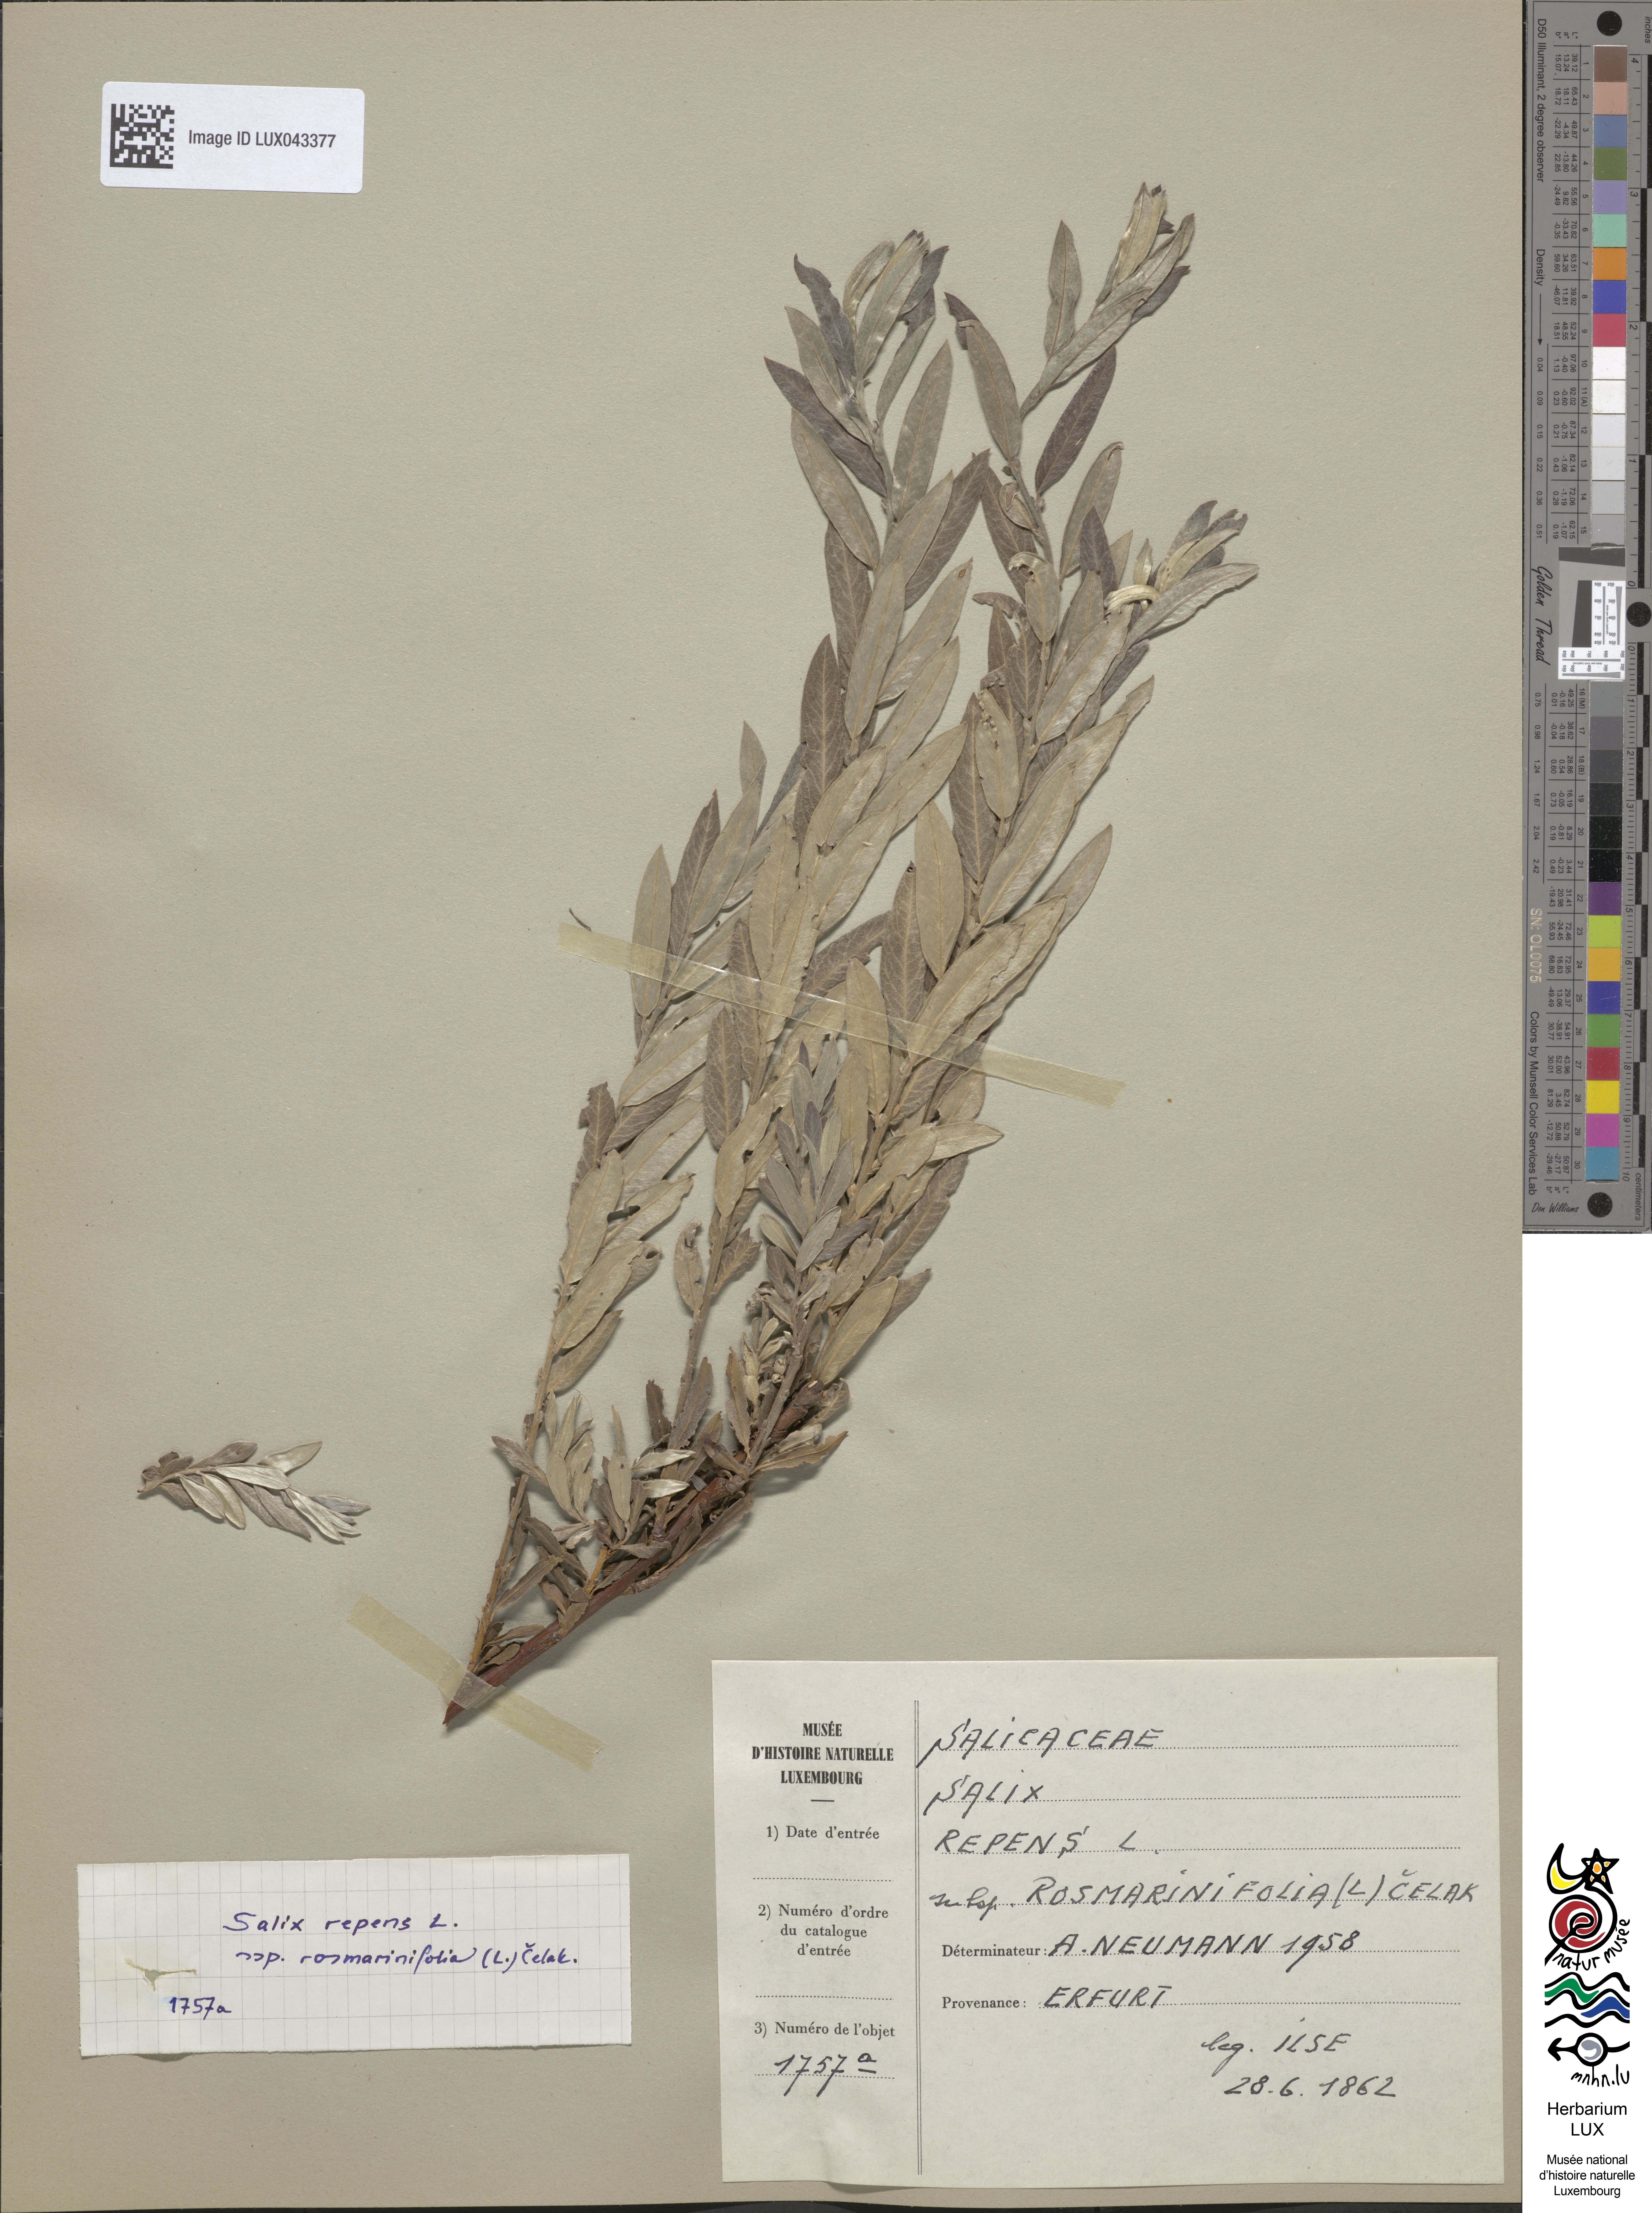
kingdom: Plantae
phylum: Tracheophyta
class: Magnoliopsida
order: Malpighiales
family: Salicaceae
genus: Salix
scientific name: Salix rosmarinifolia
